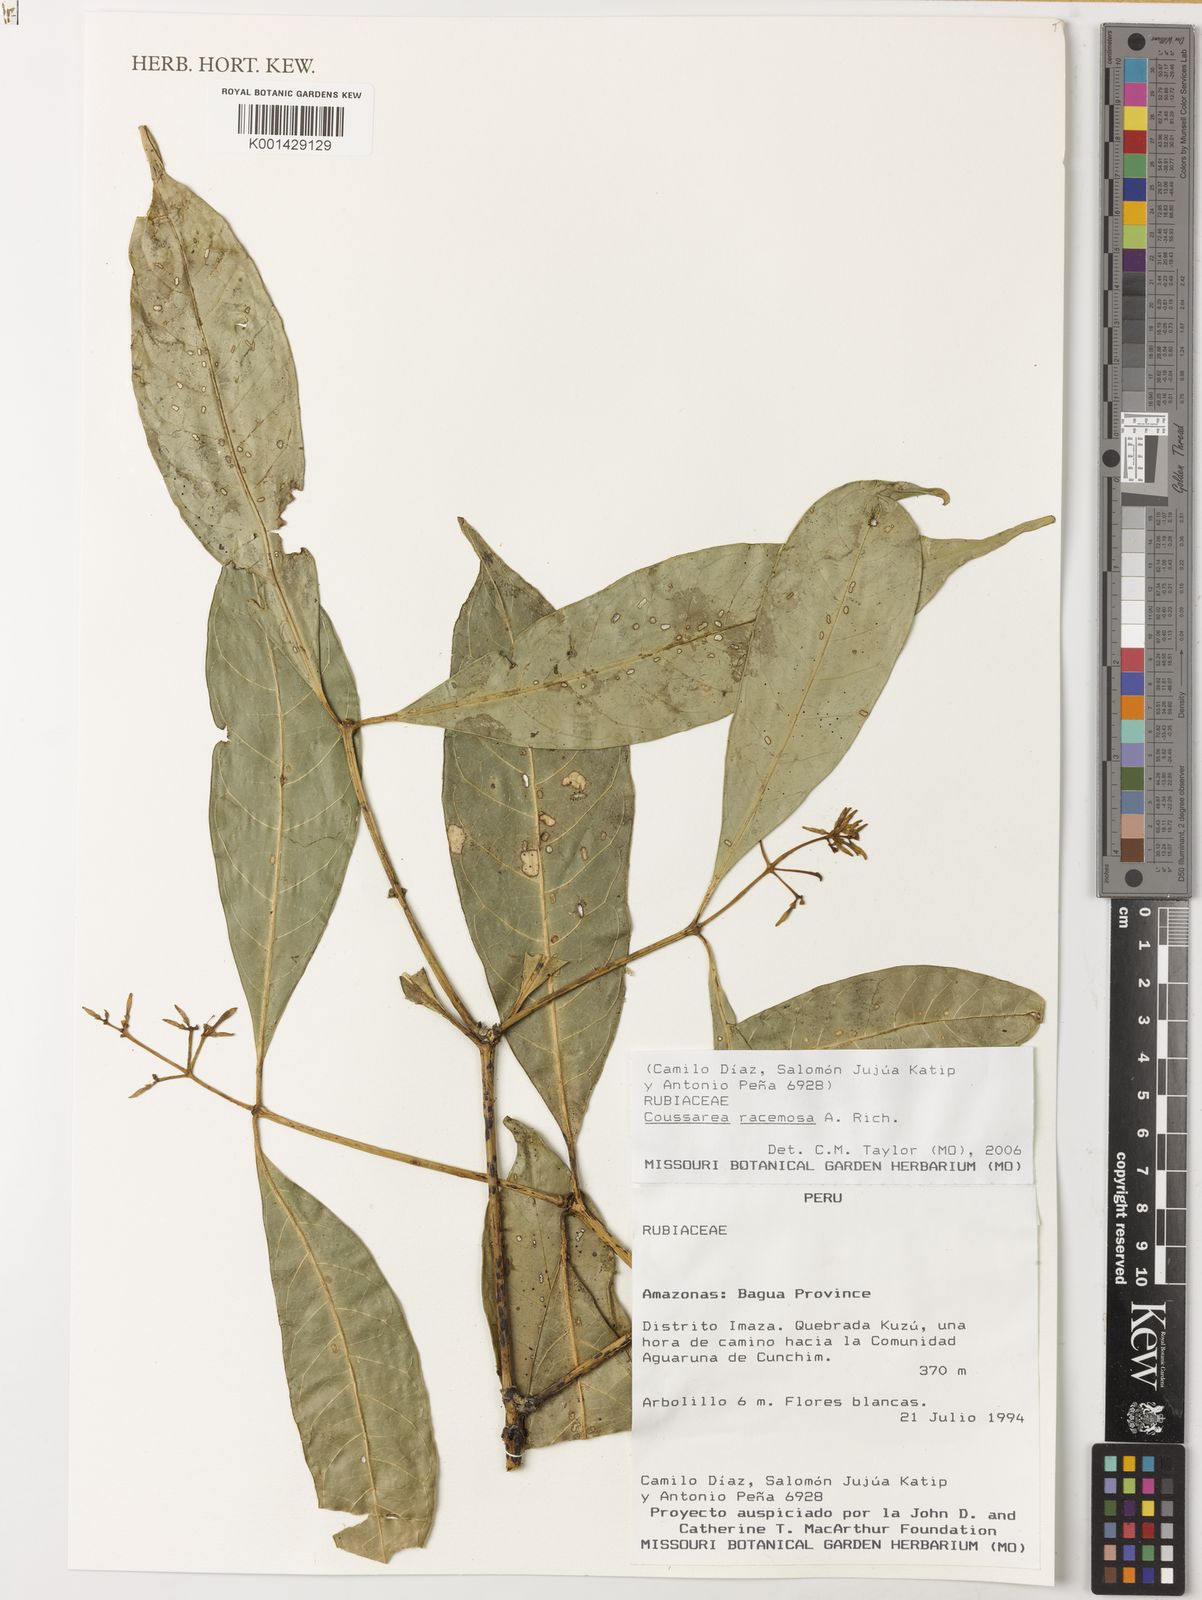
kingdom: Plantae
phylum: Tracheophyta
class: Magnoliopsida
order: Gentianales
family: Rubiaceae
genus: Coussarea
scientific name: Coussarea
